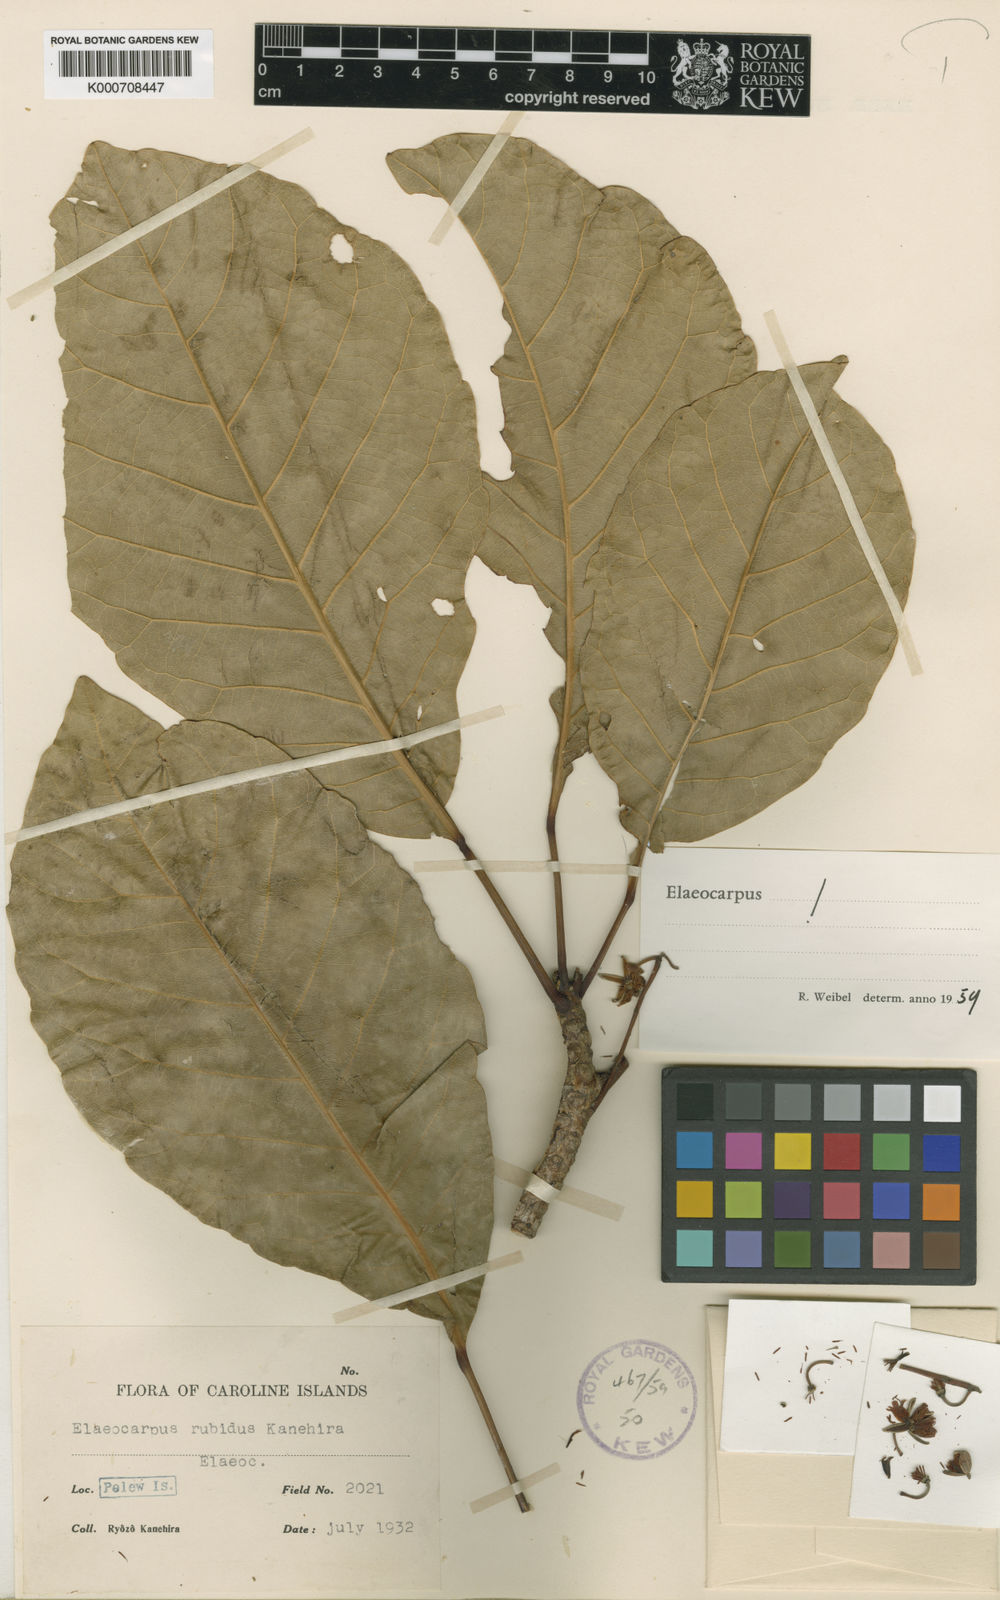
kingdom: Plantae
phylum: Tracheophyta
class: Magnoliopsida
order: Oxalidales
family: Elaeocarpaceae
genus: Elaeocarpus
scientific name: Elaeocarpus rubidus
